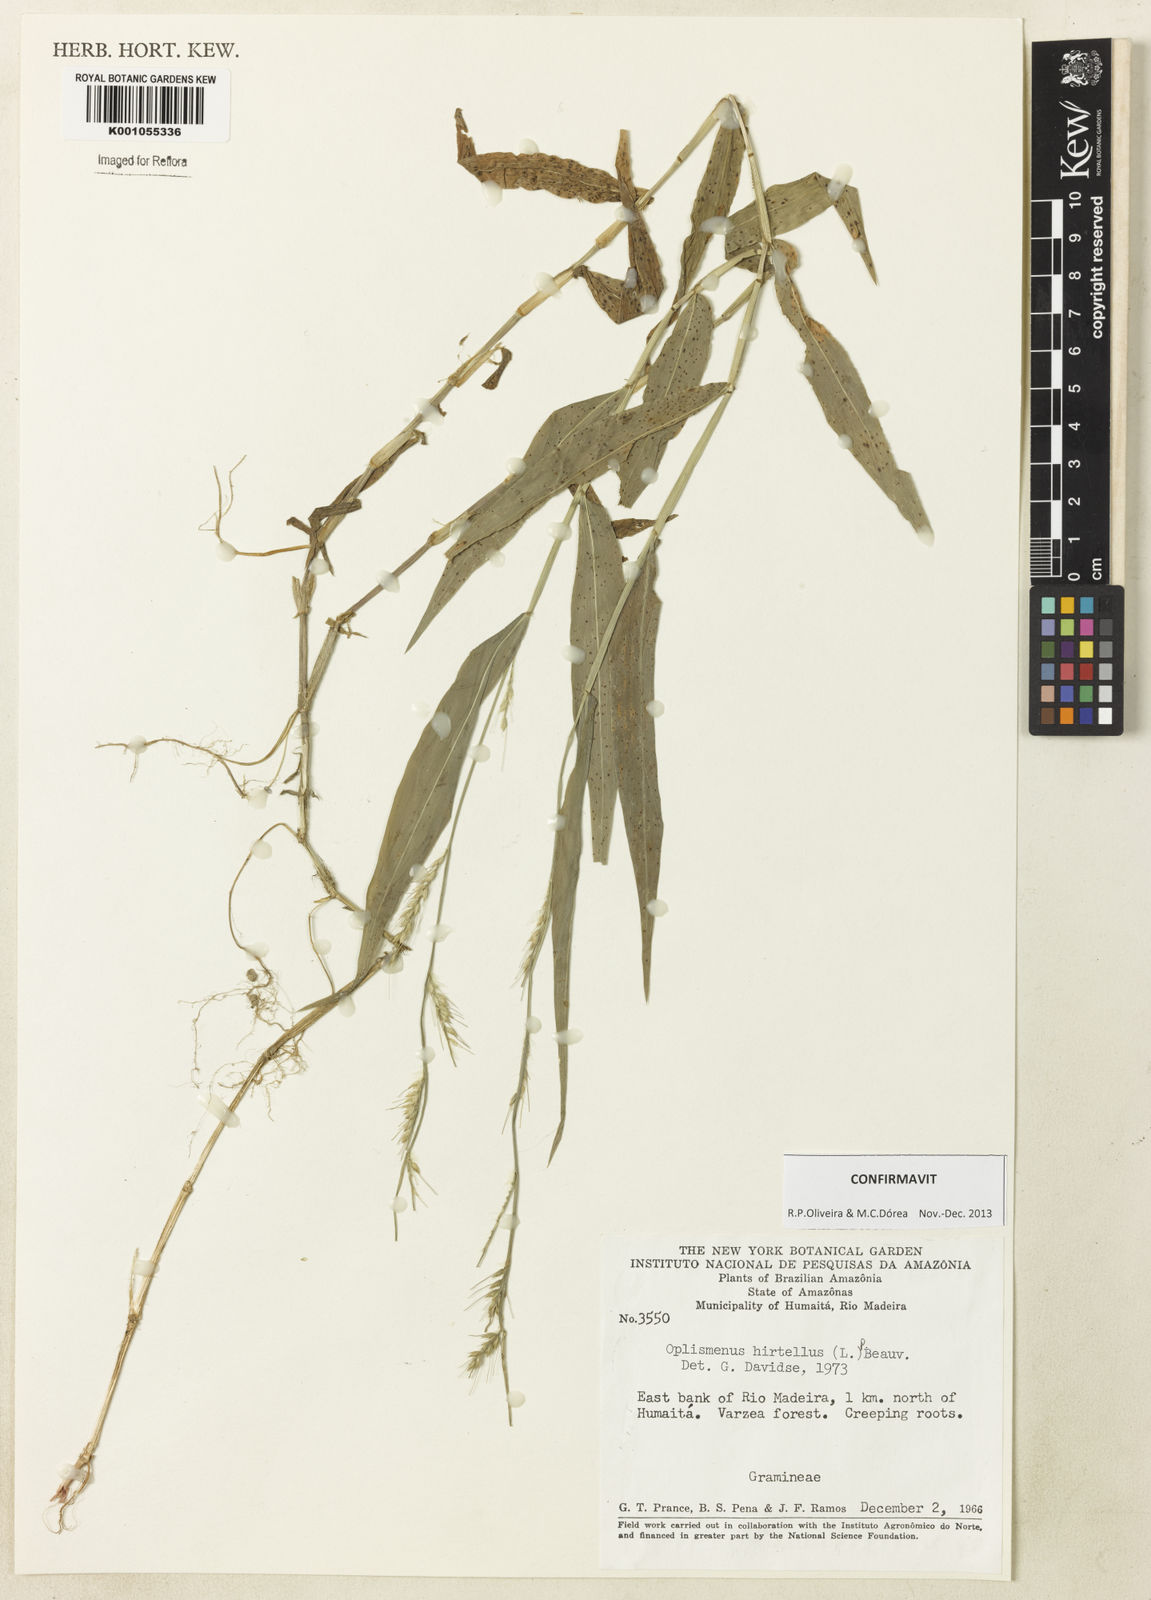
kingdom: Plantae
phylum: Tracheophyta
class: Liliopsida
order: Poales
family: Poaceae
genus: Oplismenus
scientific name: Oplismenus hirtellus
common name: Basketgrass
